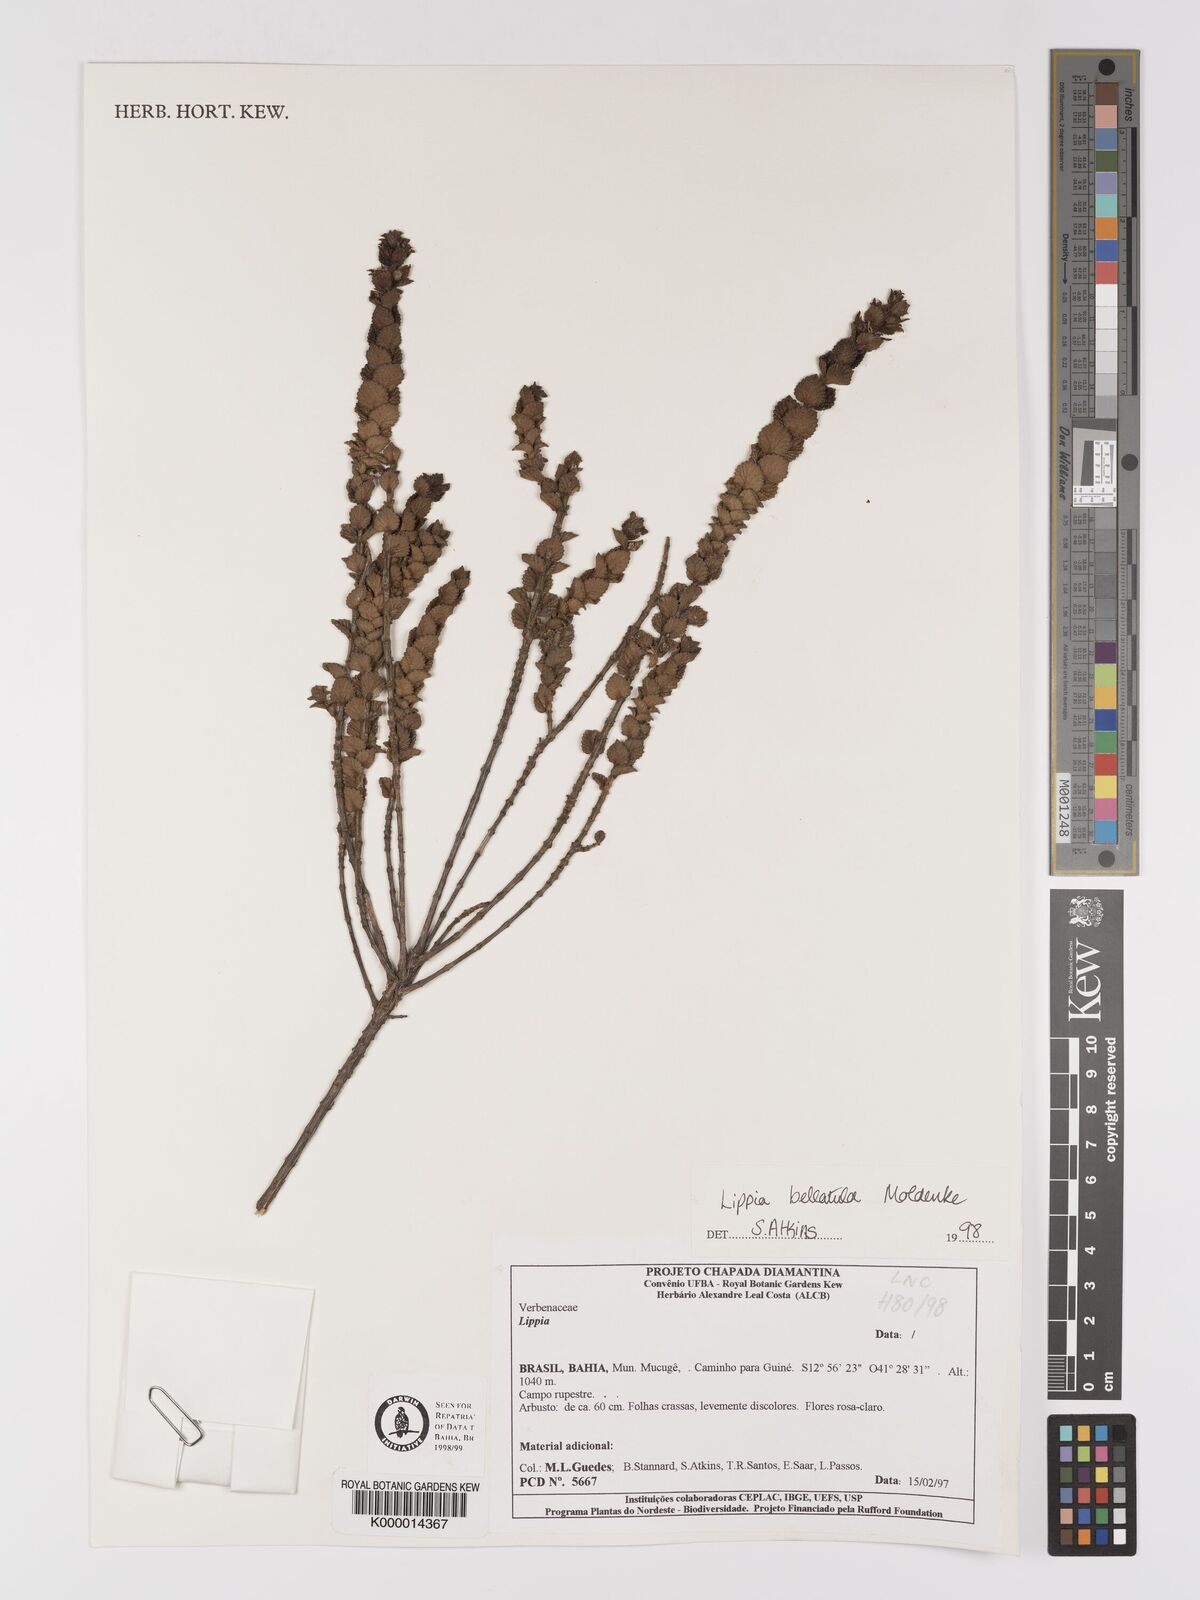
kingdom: Plantae
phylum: Tracheophyta
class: Magnoliopsida
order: Lamiales
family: Verbenaceae
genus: Lippia
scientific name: Lippia bellatula
